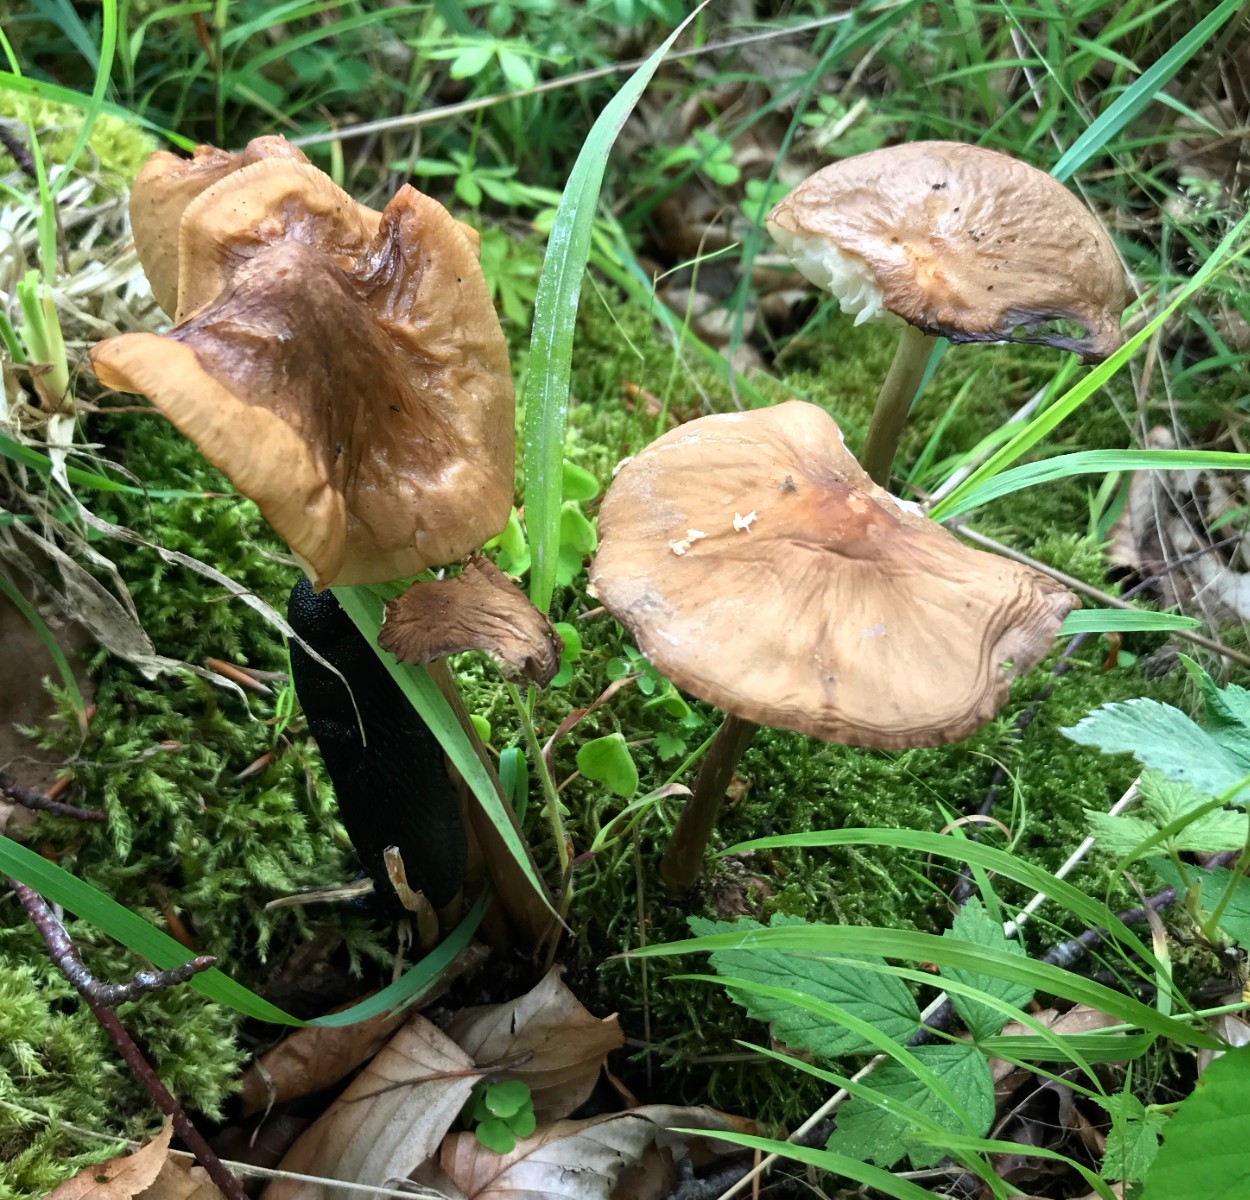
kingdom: Fungi
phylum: Basidiomycota
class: Agaricomycetes
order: Agaricales
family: Physalacriaceae
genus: Hymenopellis
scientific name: Hymenopellis radicata
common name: almindelig pælerodshat
